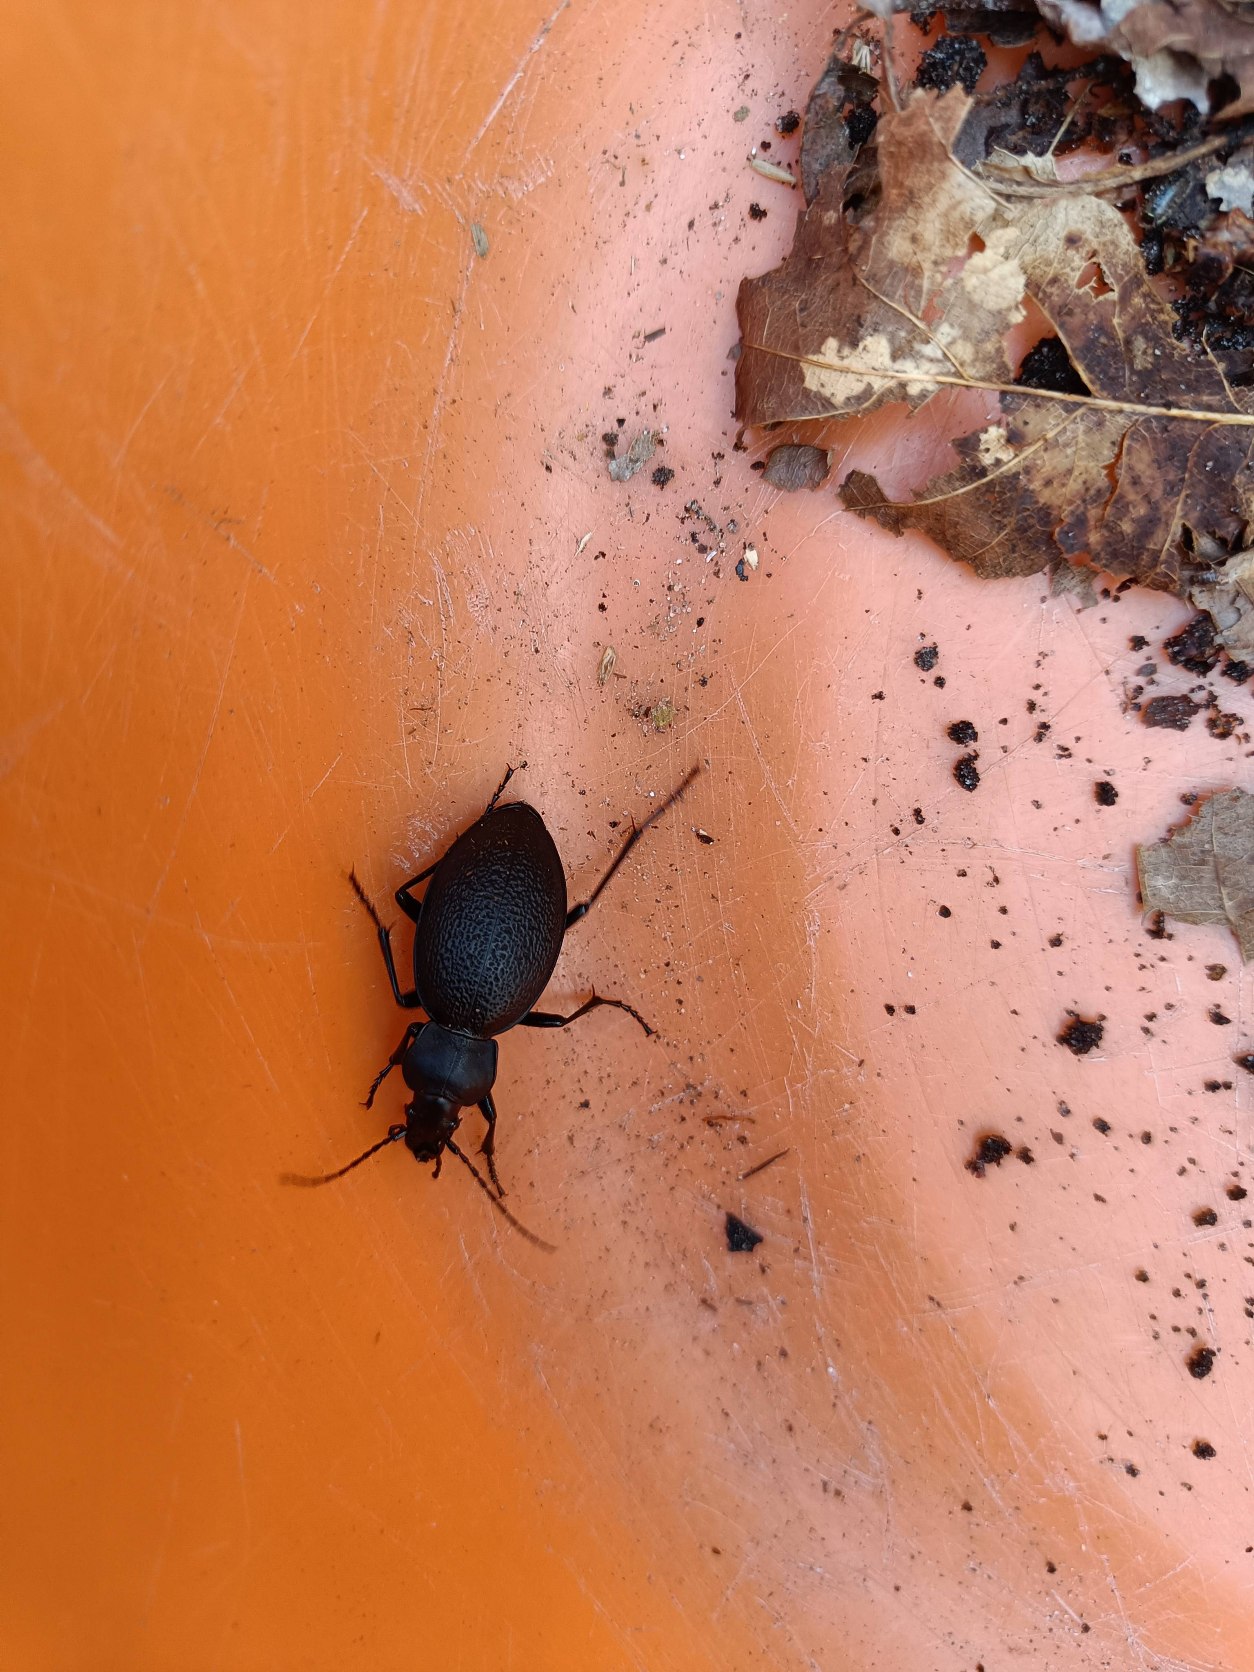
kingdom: Animalia
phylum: Arthropoda
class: Insecta
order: Coleoptera
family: Carabidae
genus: Carabus
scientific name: Carabus coriaceus
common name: Læderløber
